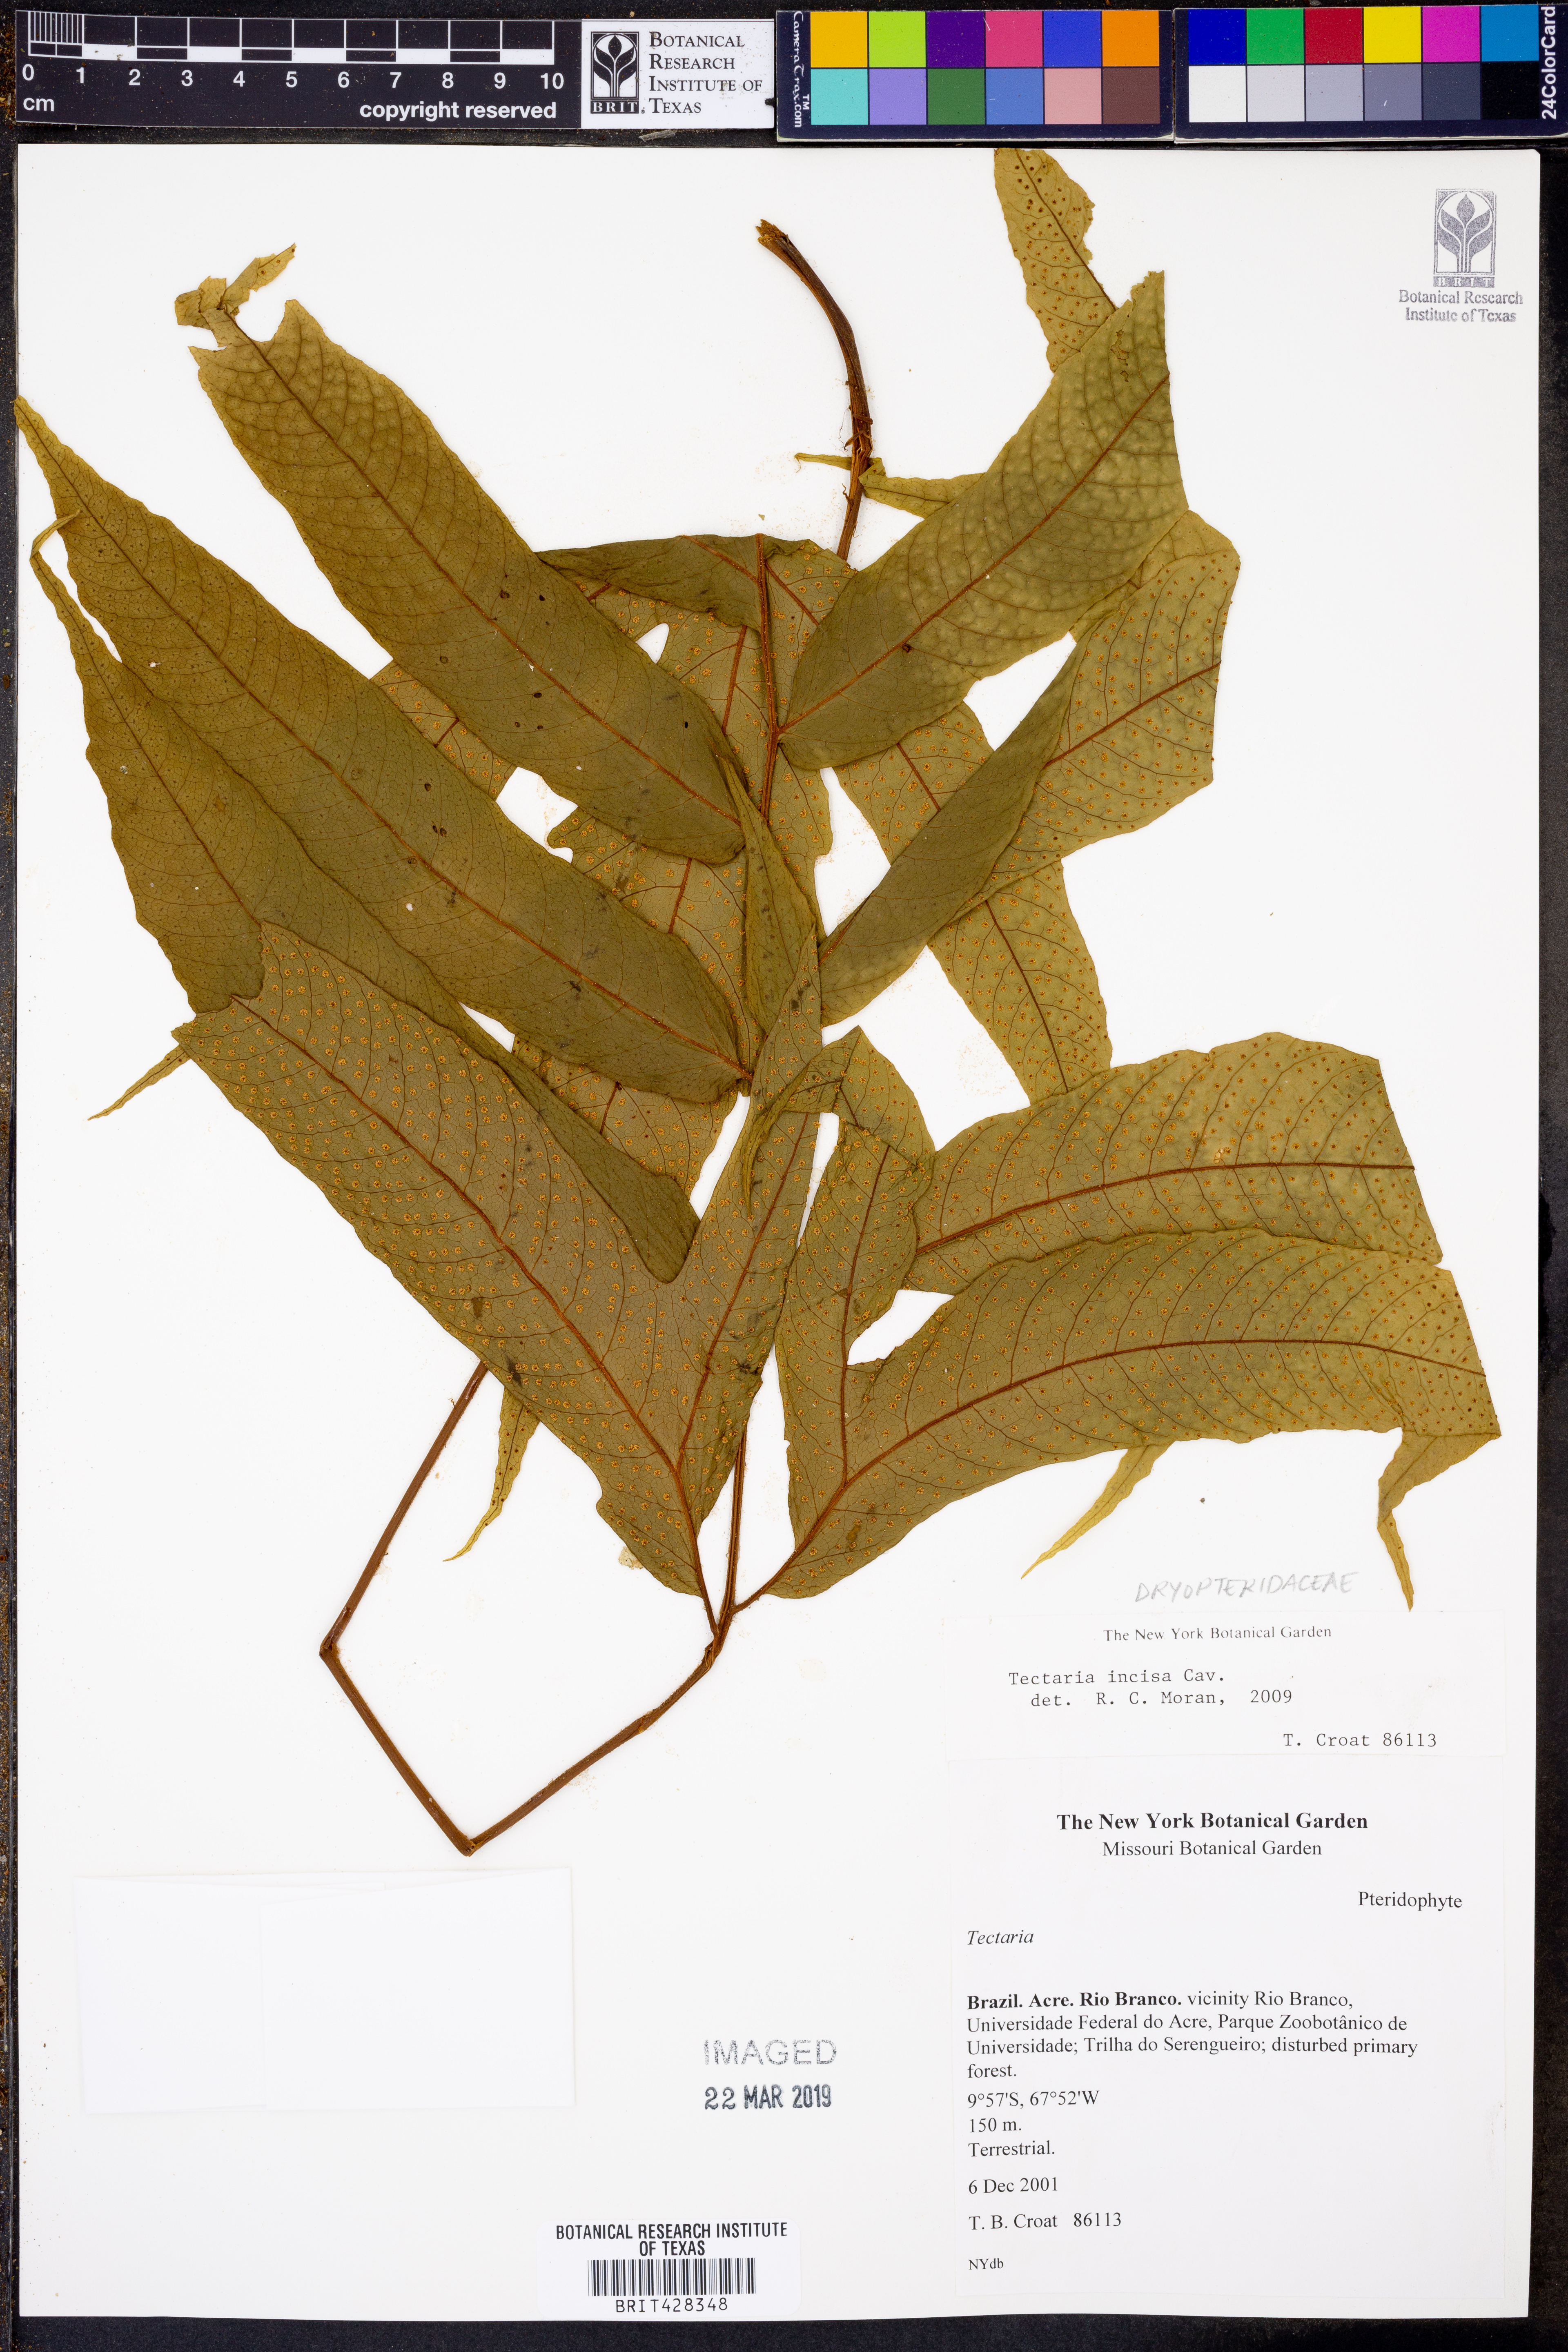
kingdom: Plantae
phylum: Tracheophyta
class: Polypodiopsida
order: Polypodiales
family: Tectariaceae
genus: Tectaria
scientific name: Tectaria incisa
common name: Incised halberd fern
